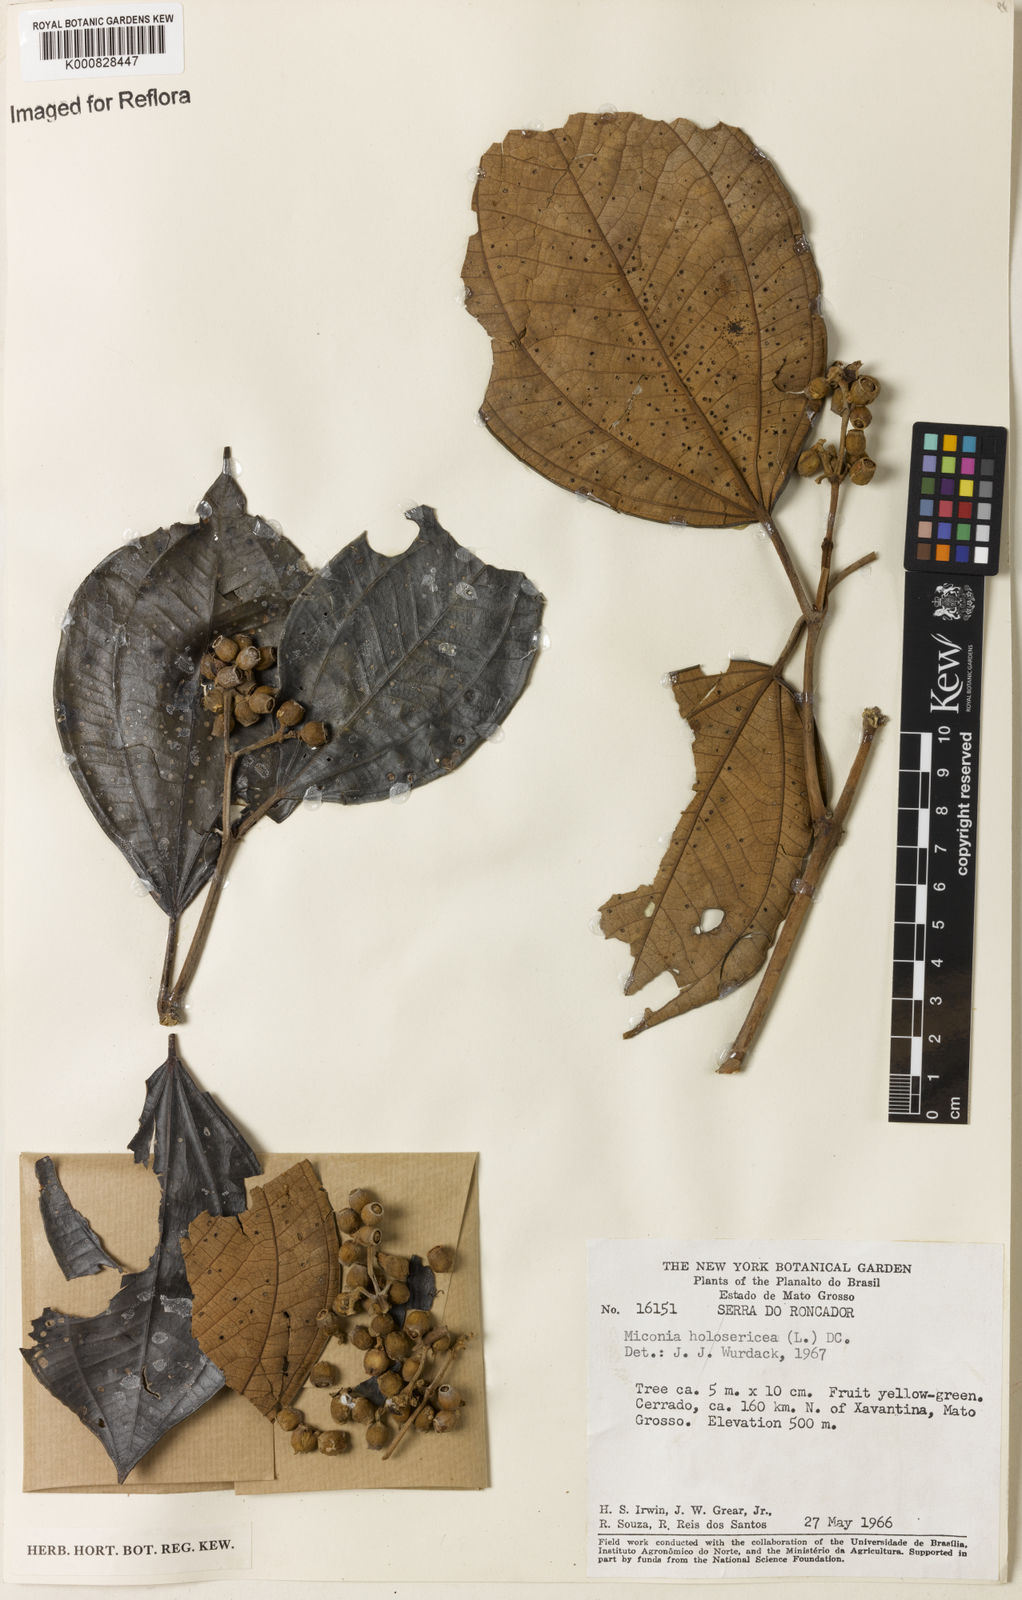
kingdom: Plantae
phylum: Tracheophyta
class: Magnoliopsida
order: Myrtales
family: Melastomataceae
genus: Miconia
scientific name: Miconia holosericea
